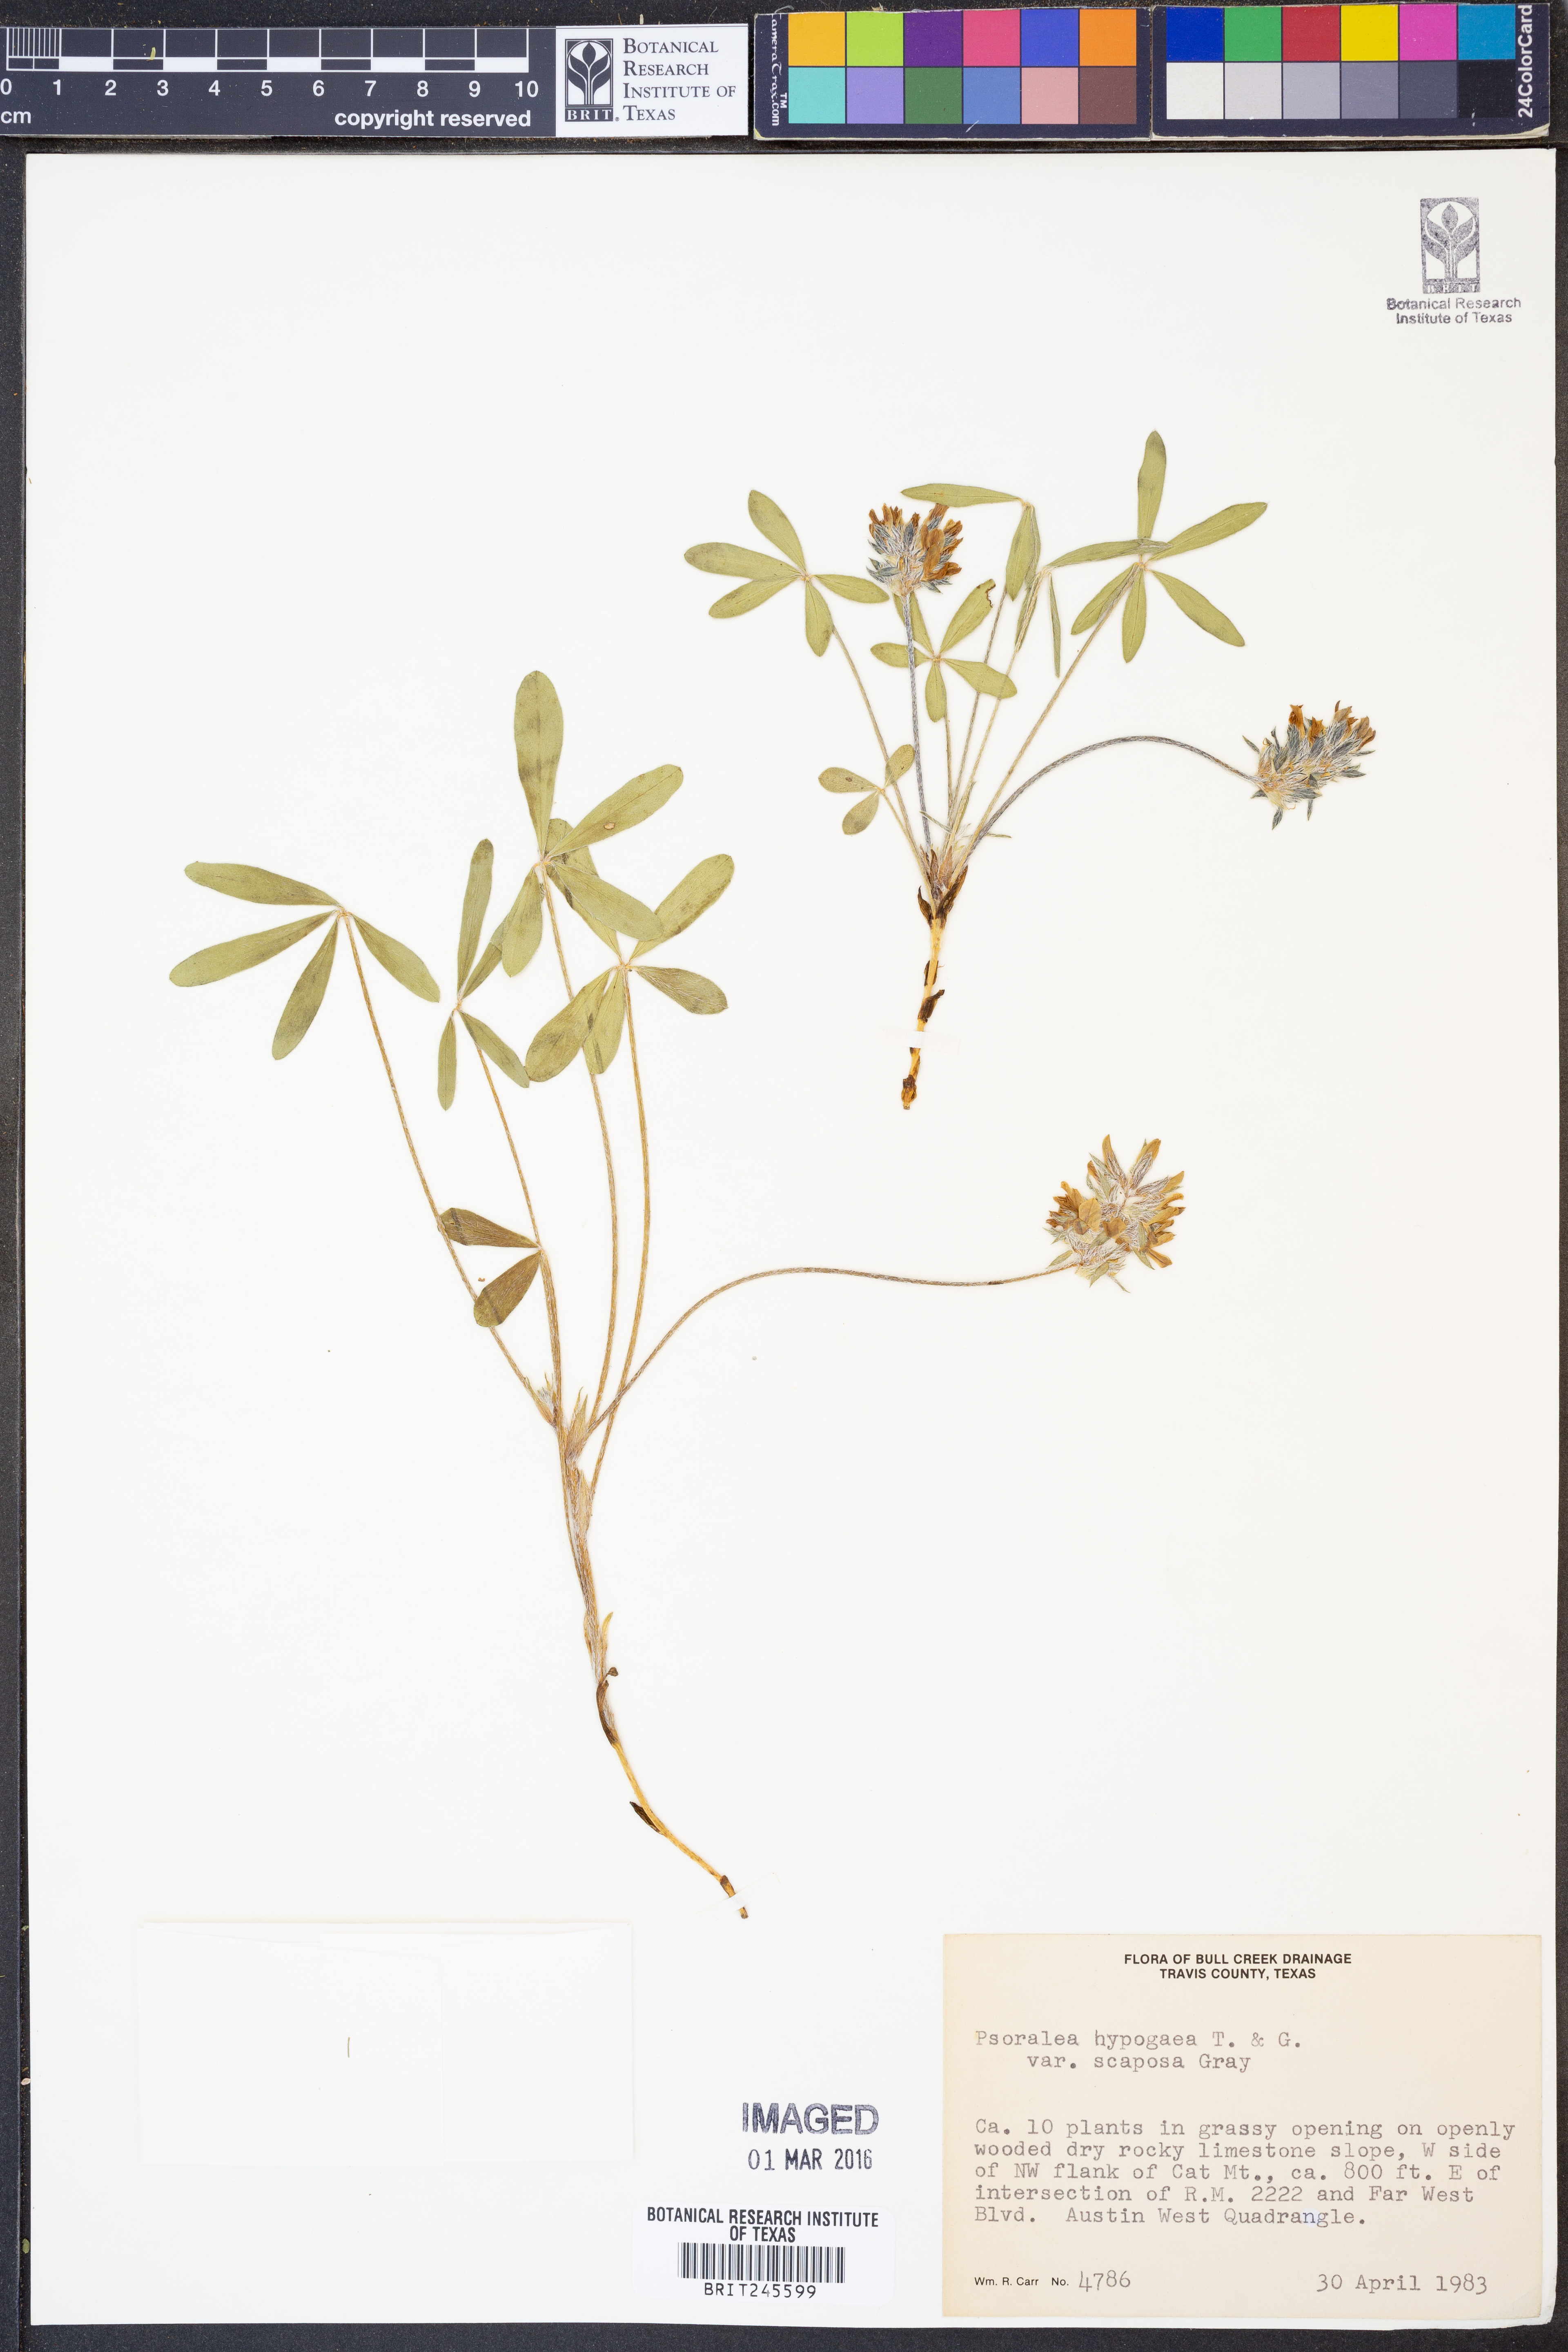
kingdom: Plantae
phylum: Tracheophyta
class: Magnoliopsida
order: Fabales
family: Fabaceae
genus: Pediomelum
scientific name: Pediomelum hypogaeum
